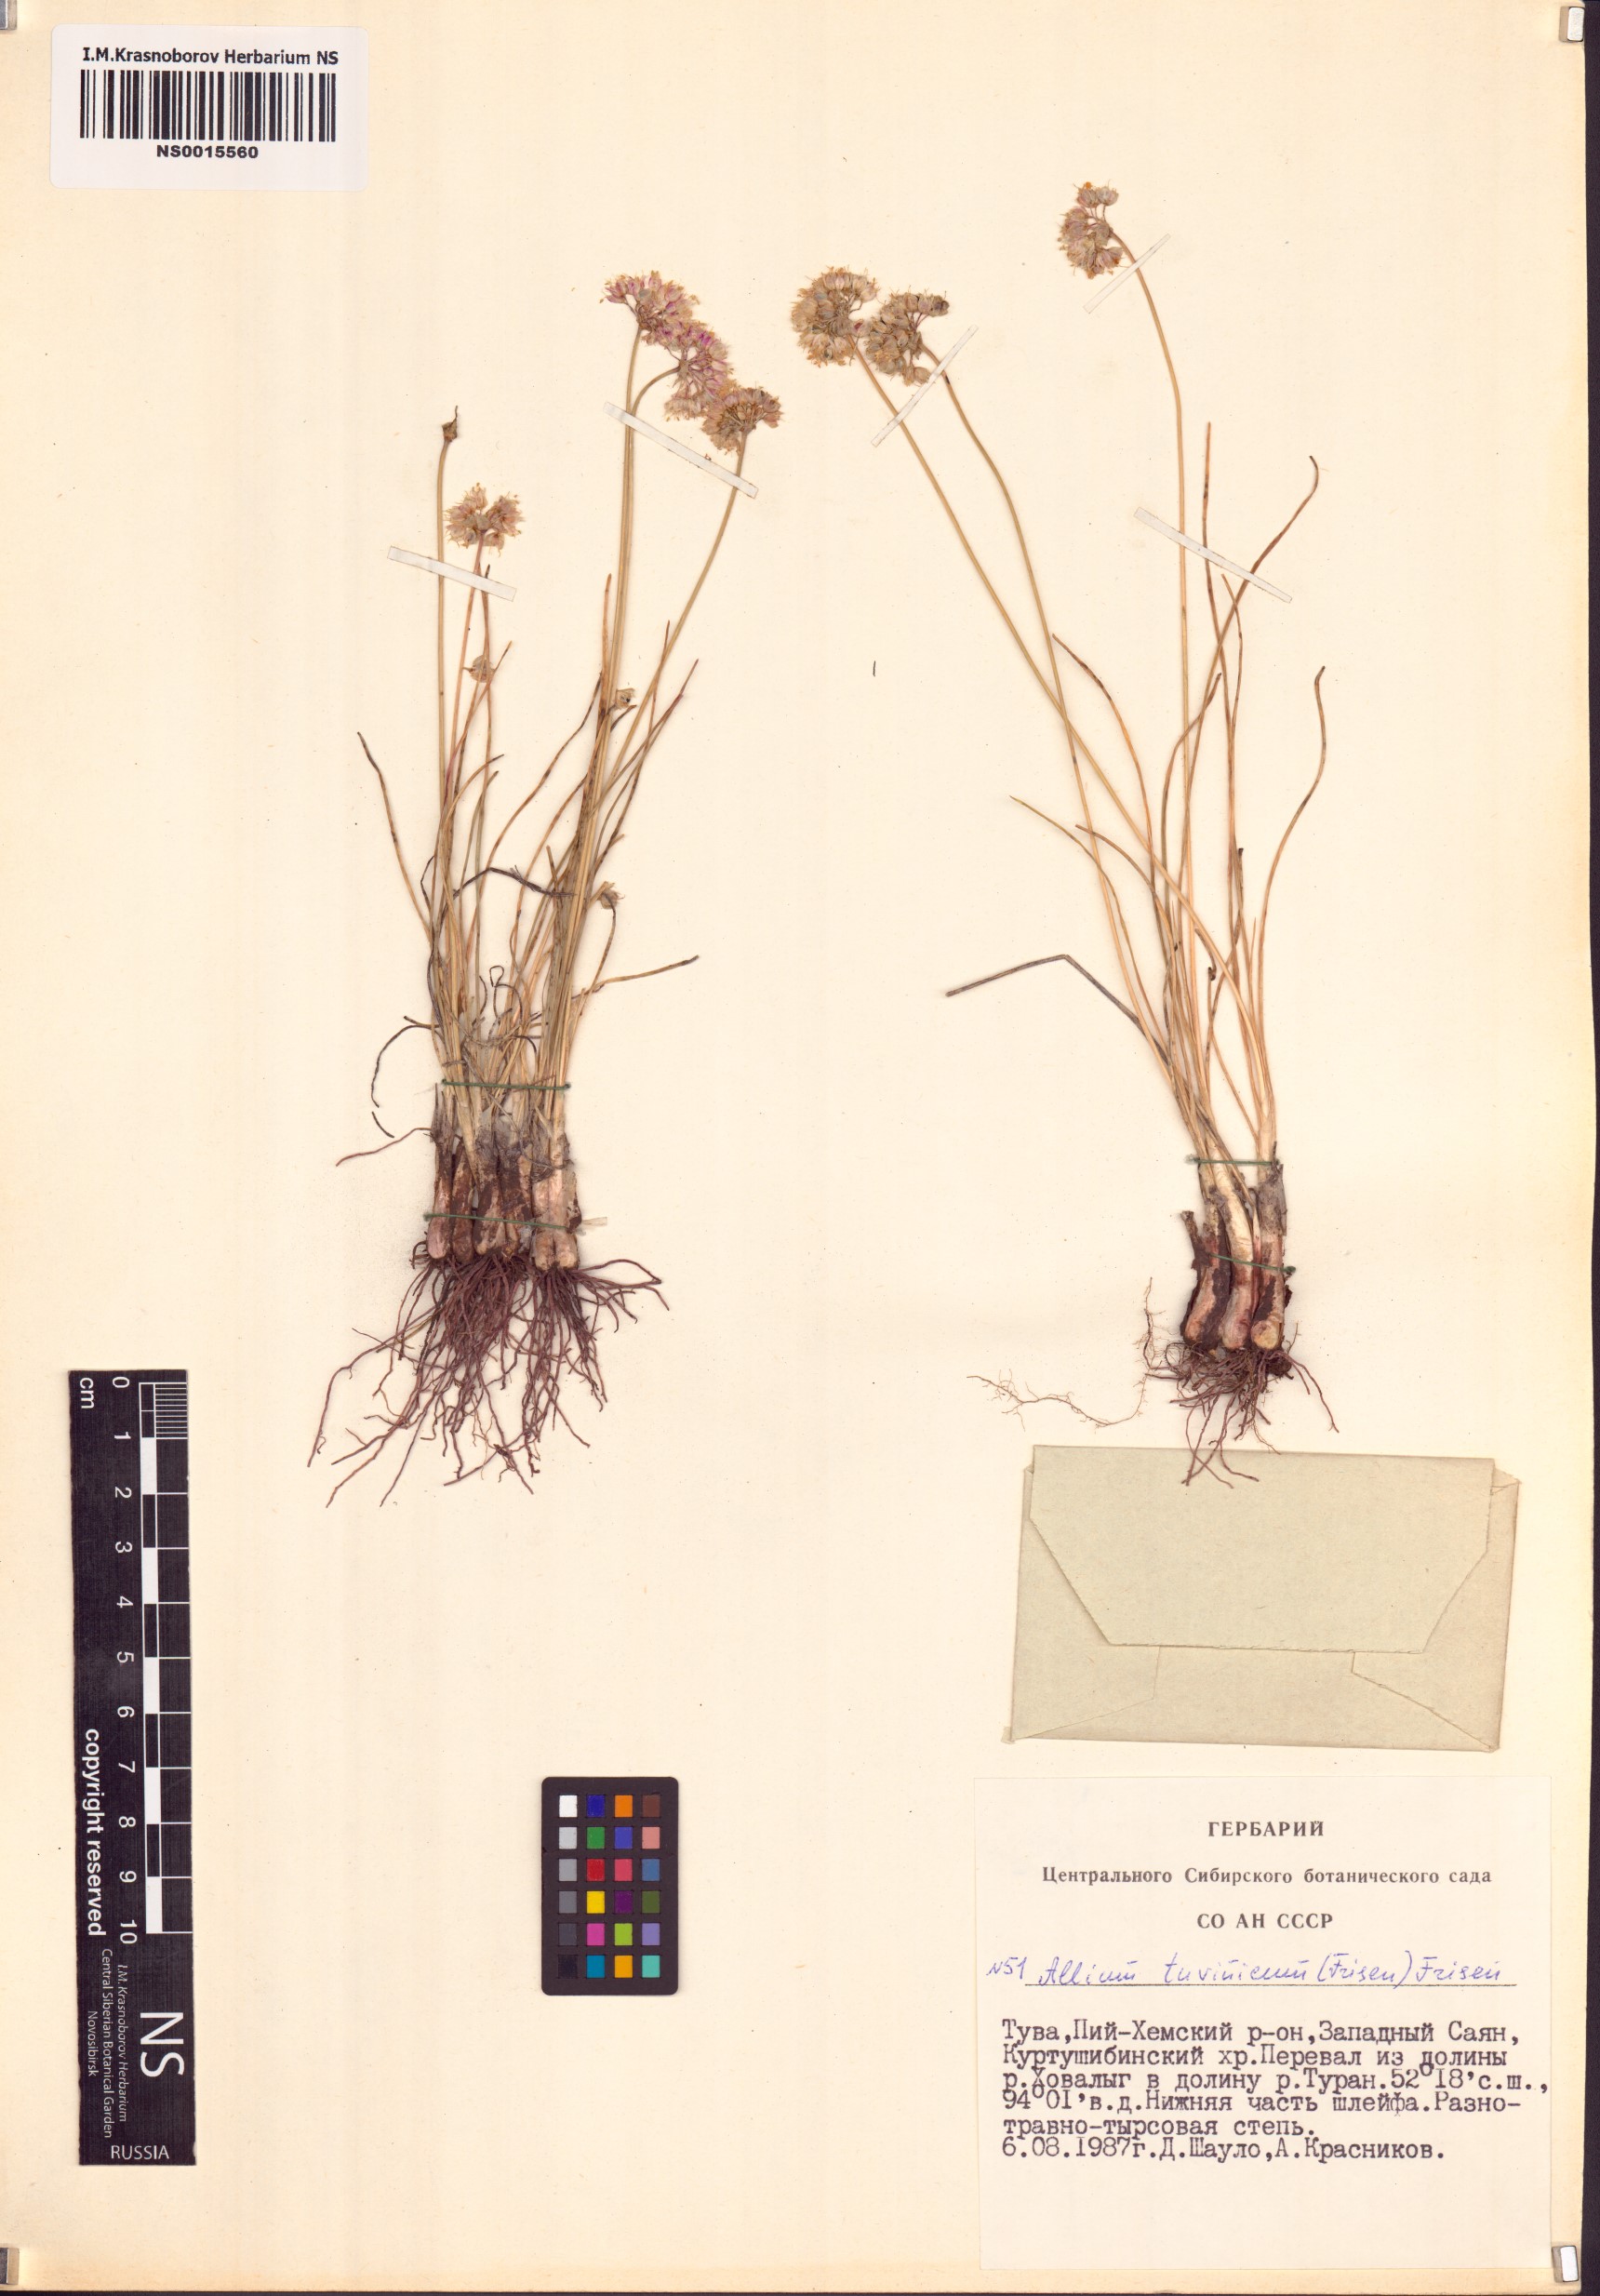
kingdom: Plantae
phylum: Tracheophyta
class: Liliopsida
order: Asparagales
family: Amaryllidaceae
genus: Allium
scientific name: Allium tuvinicum
